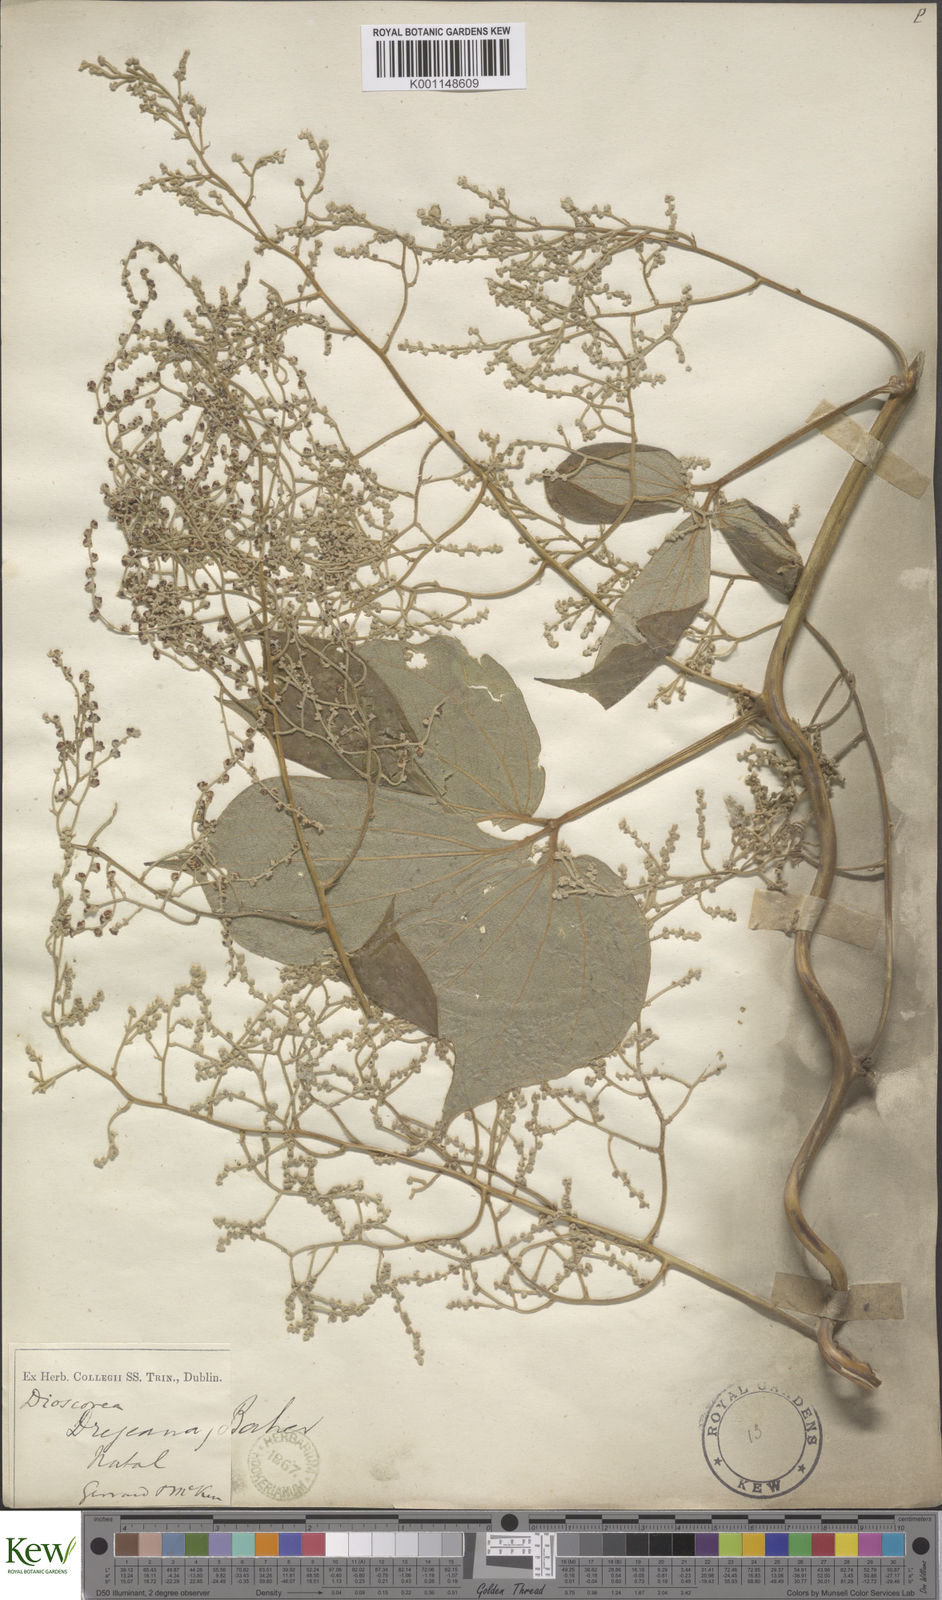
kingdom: Plantae
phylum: Tracheophyta
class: Liliopsida
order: Dioscoreales
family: Dioscoreaceae
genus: Dioscorea
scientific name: Dioscorea dregeana
